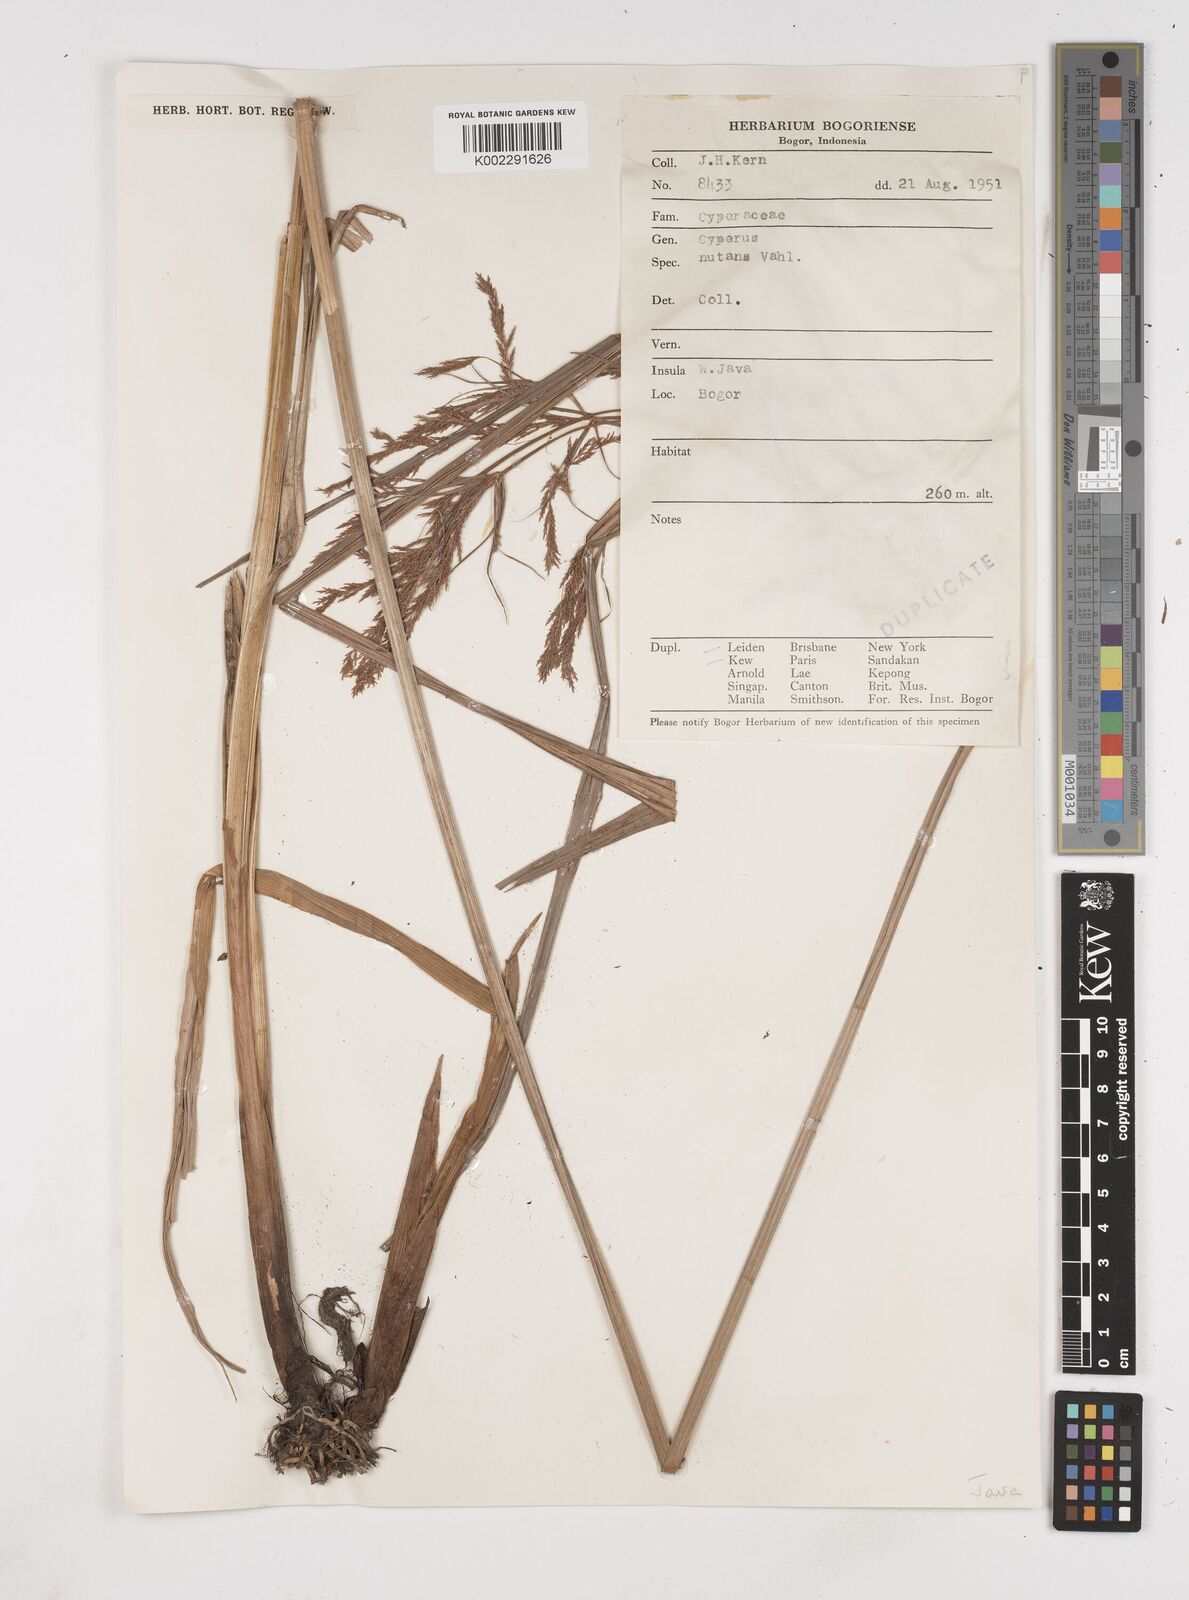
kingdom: Plantae
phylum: Tracheophyta
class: Liliopsida
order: Poales
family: Cyperaceae
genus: Cyperus
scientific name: Cyperus nutans
